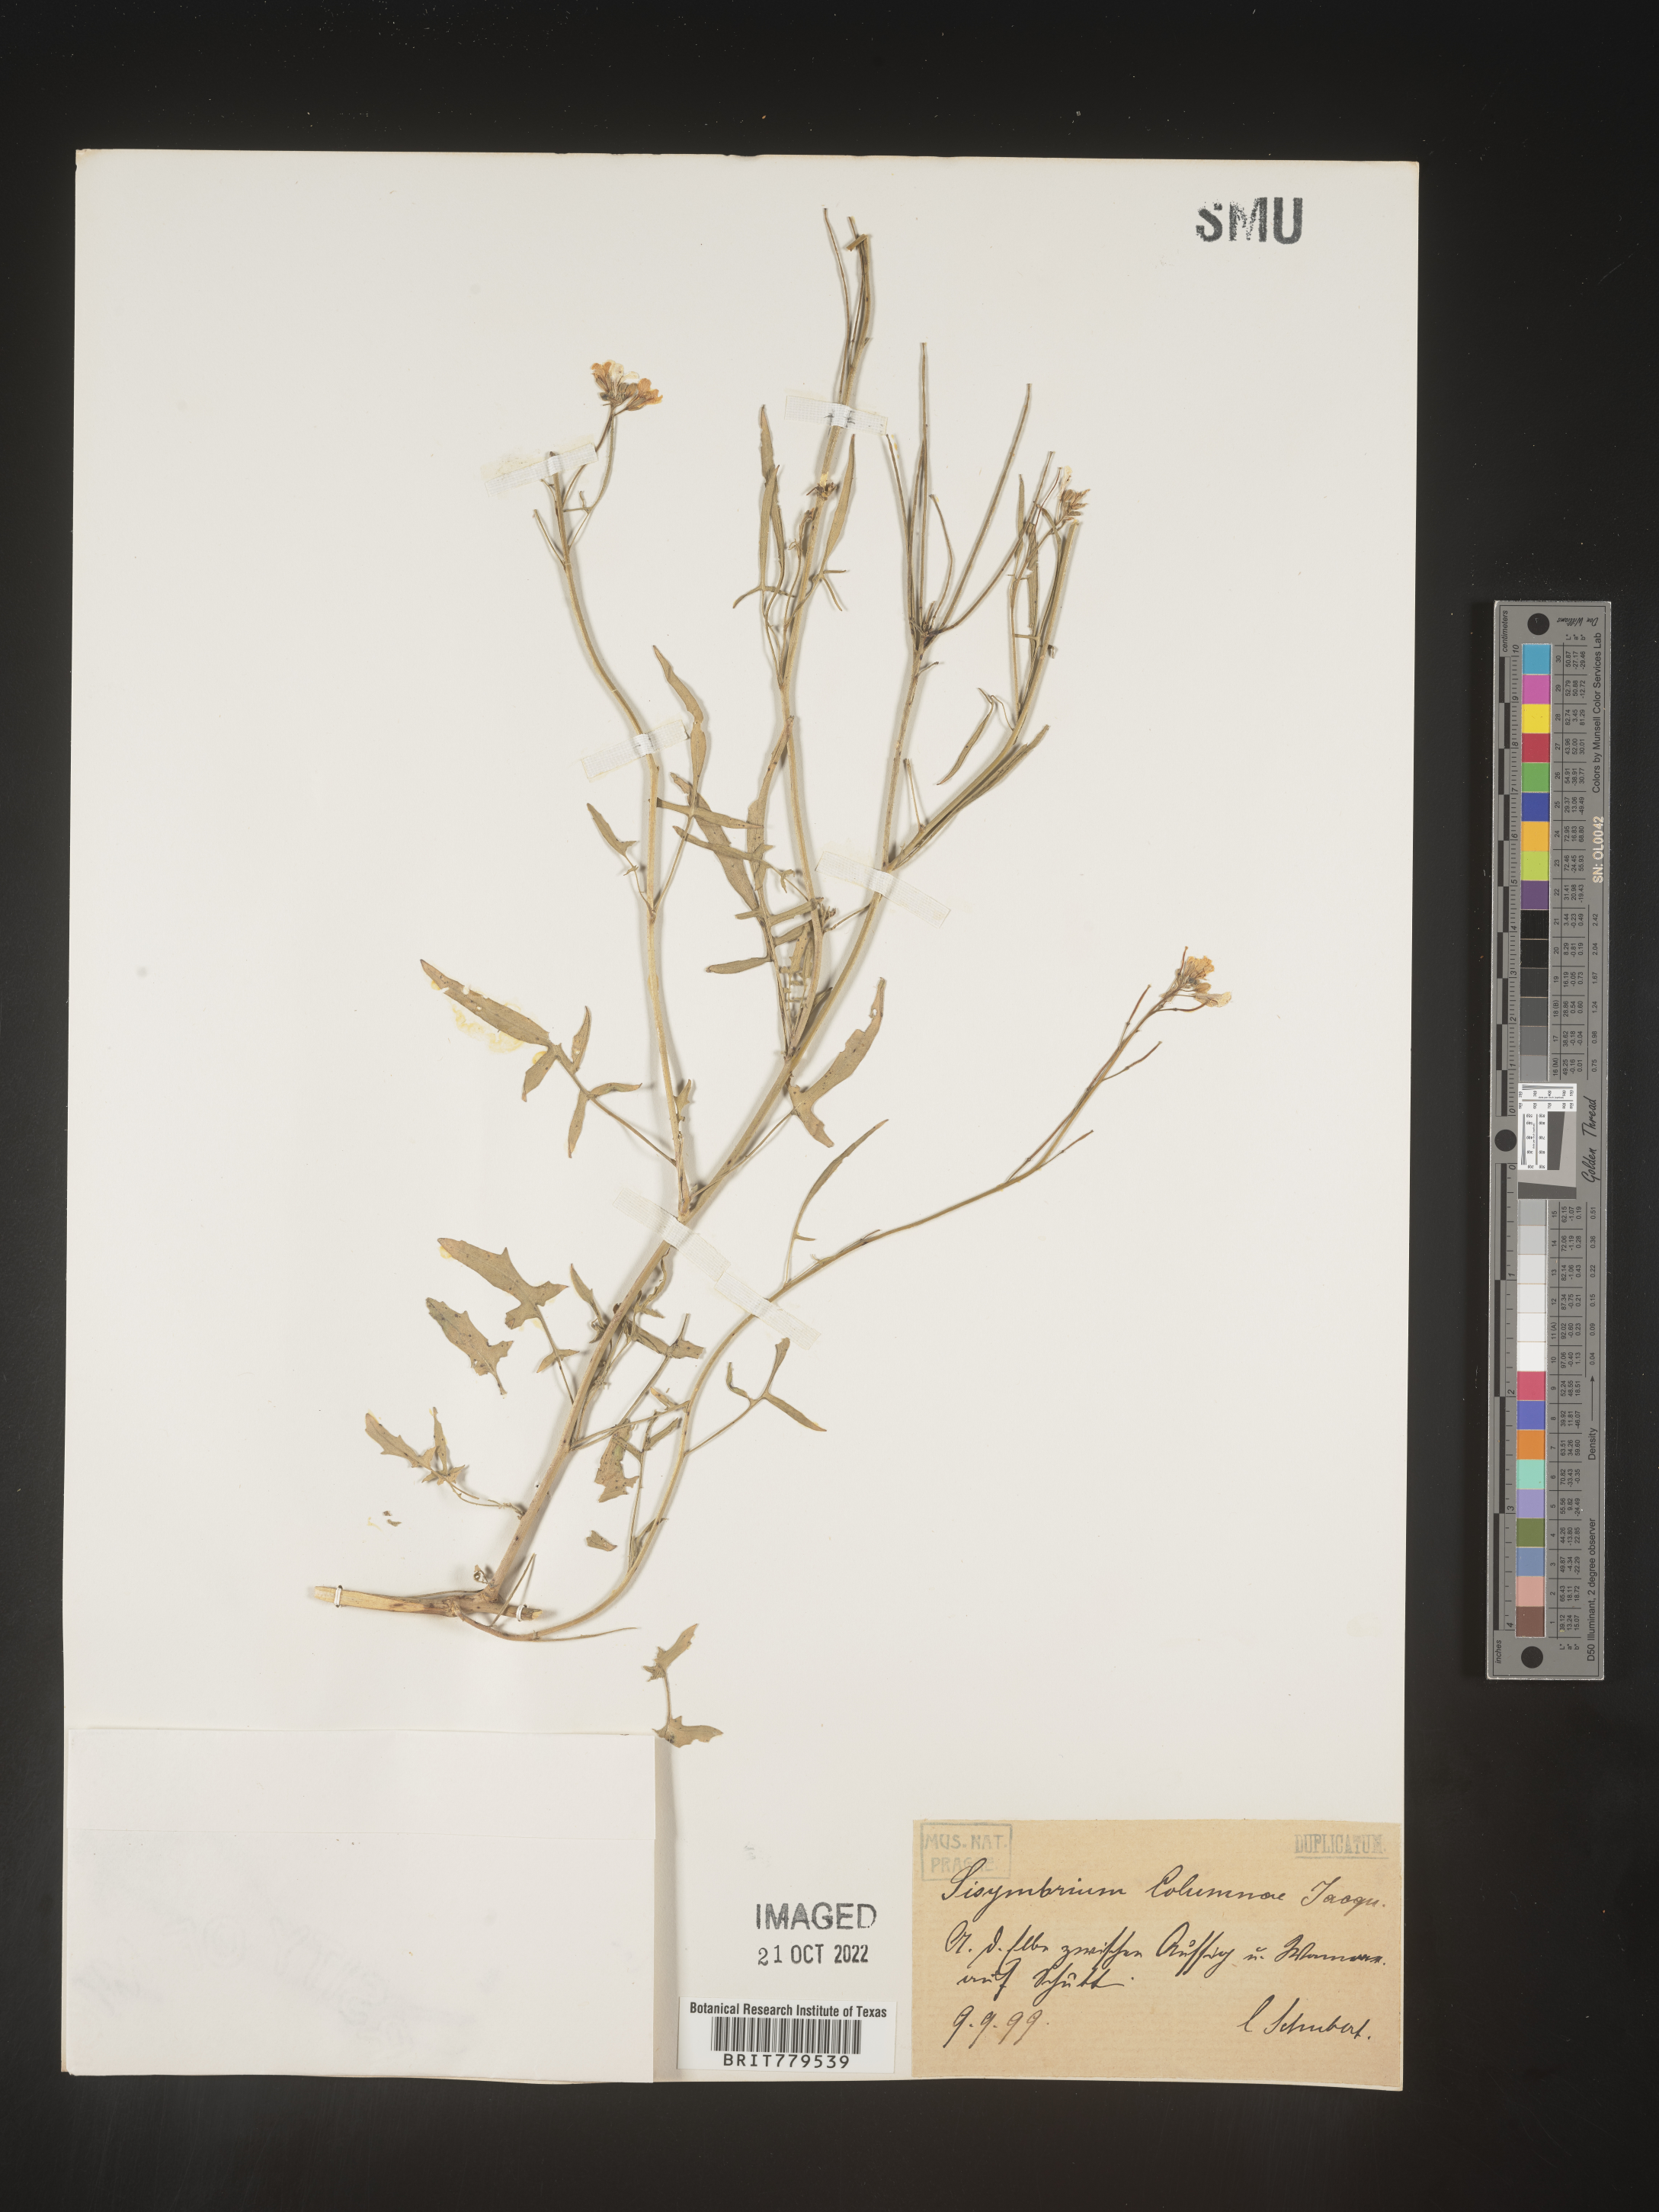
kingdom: Plantae
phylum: Tracheophyta
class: Magnoliopsida
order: Brassicales
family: Brassicaceae
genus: Sisymbrium
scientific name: Sisymbrium
